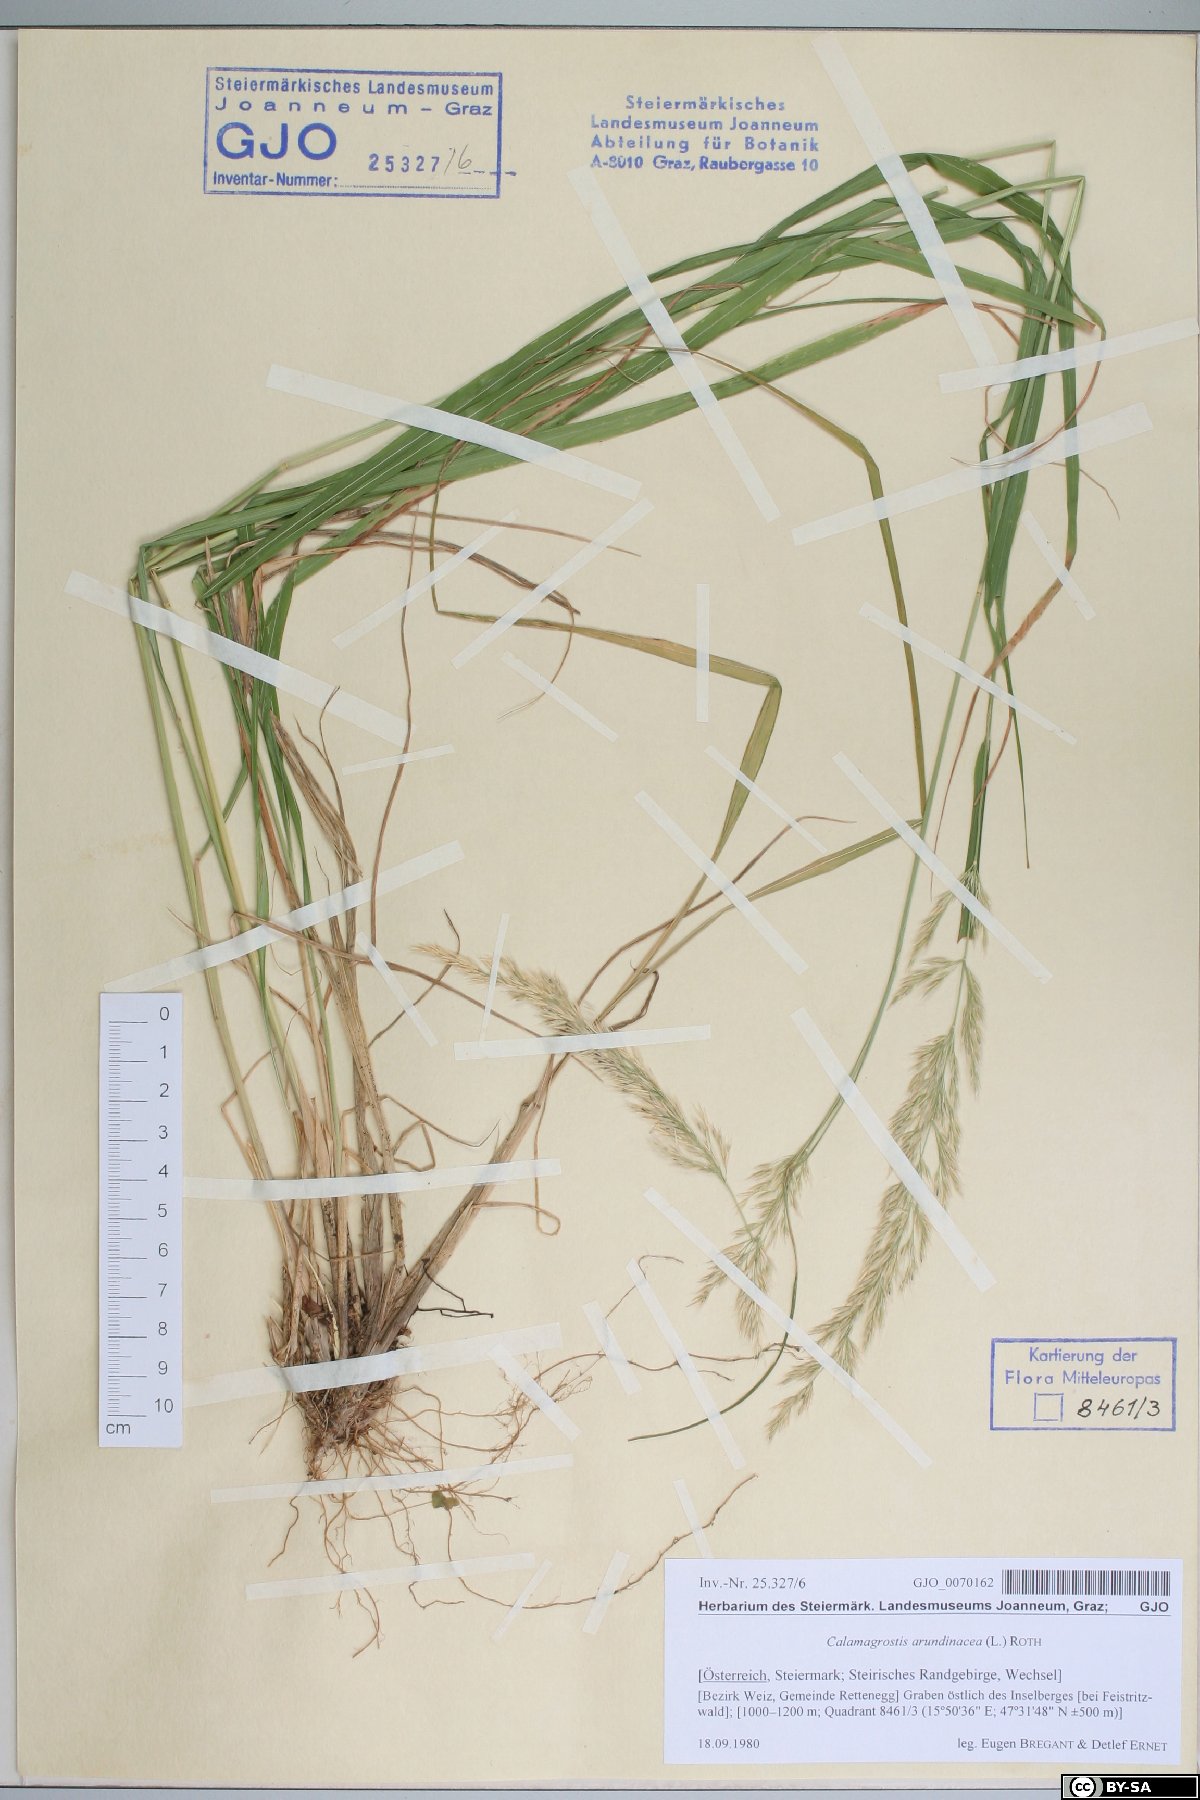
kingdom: Plantae
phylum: Tracheophyta
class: Liliopsida
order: Poales
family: Poaceae
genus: Calamagrostis
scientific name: Calamagrostis arundinacea
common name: Metskastik
